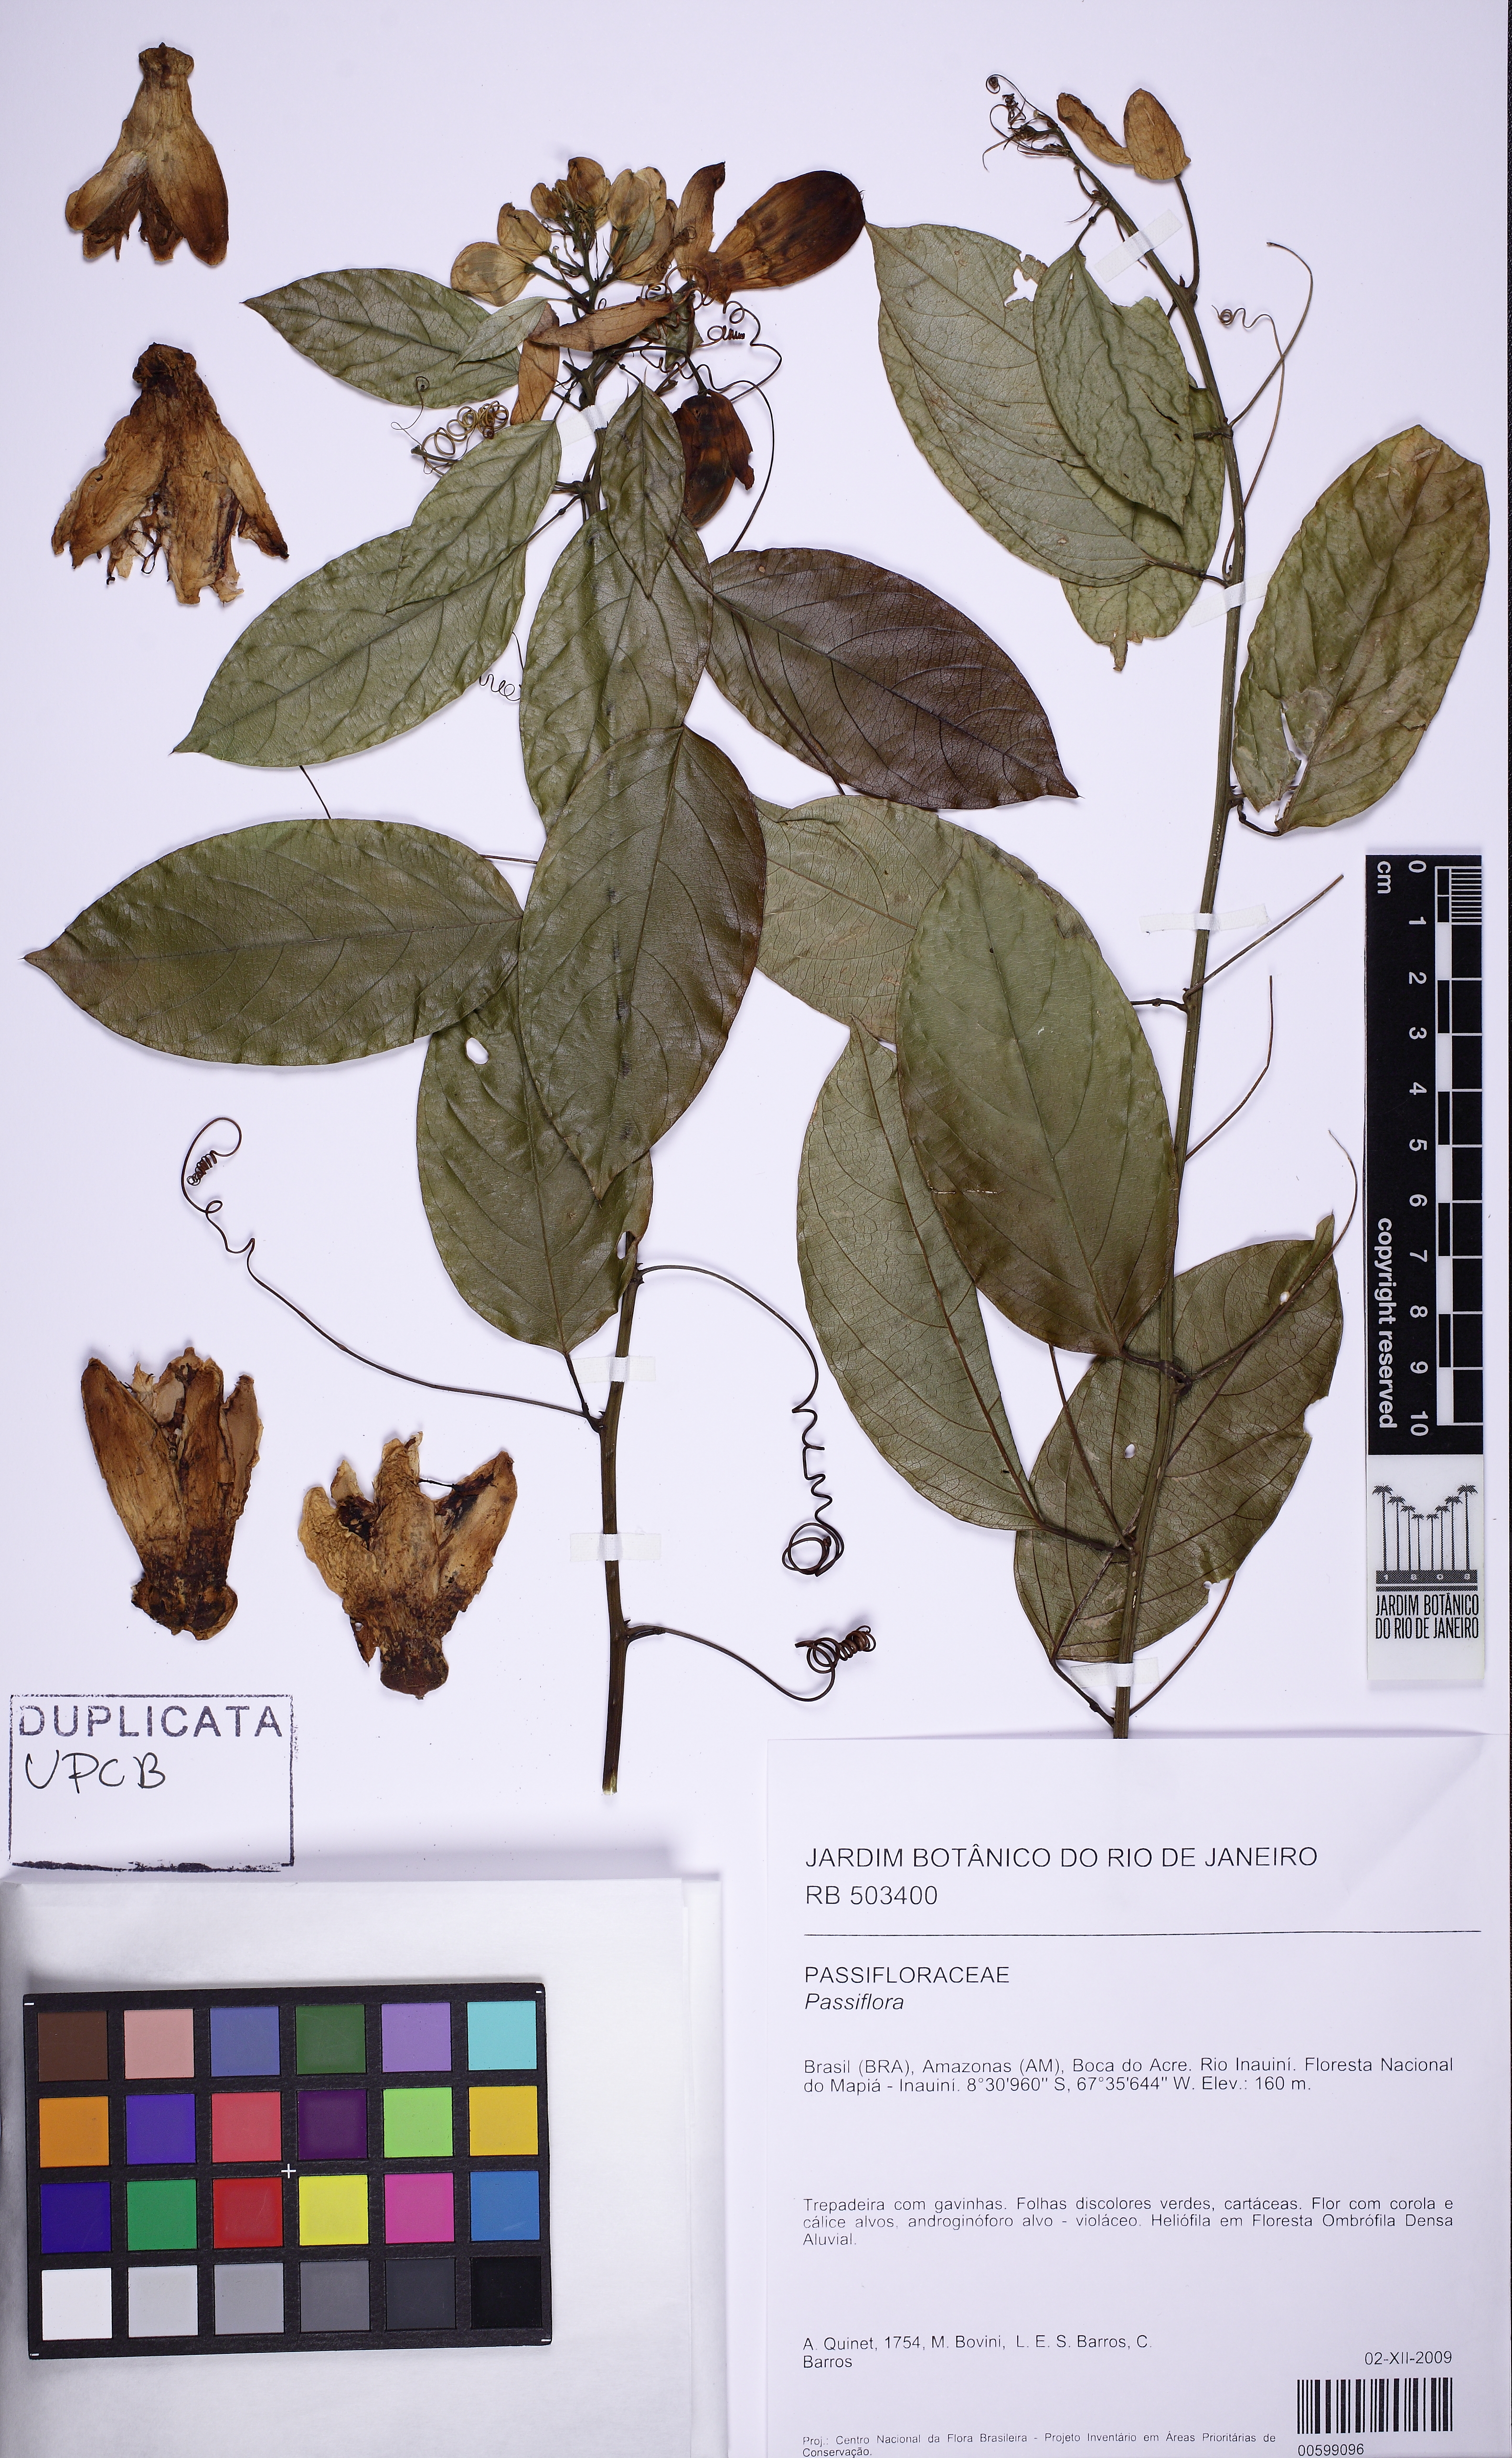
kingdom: Plantae
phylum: Tracheophyta
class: Magnoliopsida
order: Malpighiales
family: Passifloraceae
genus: Passiflora
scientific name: Passiflora
